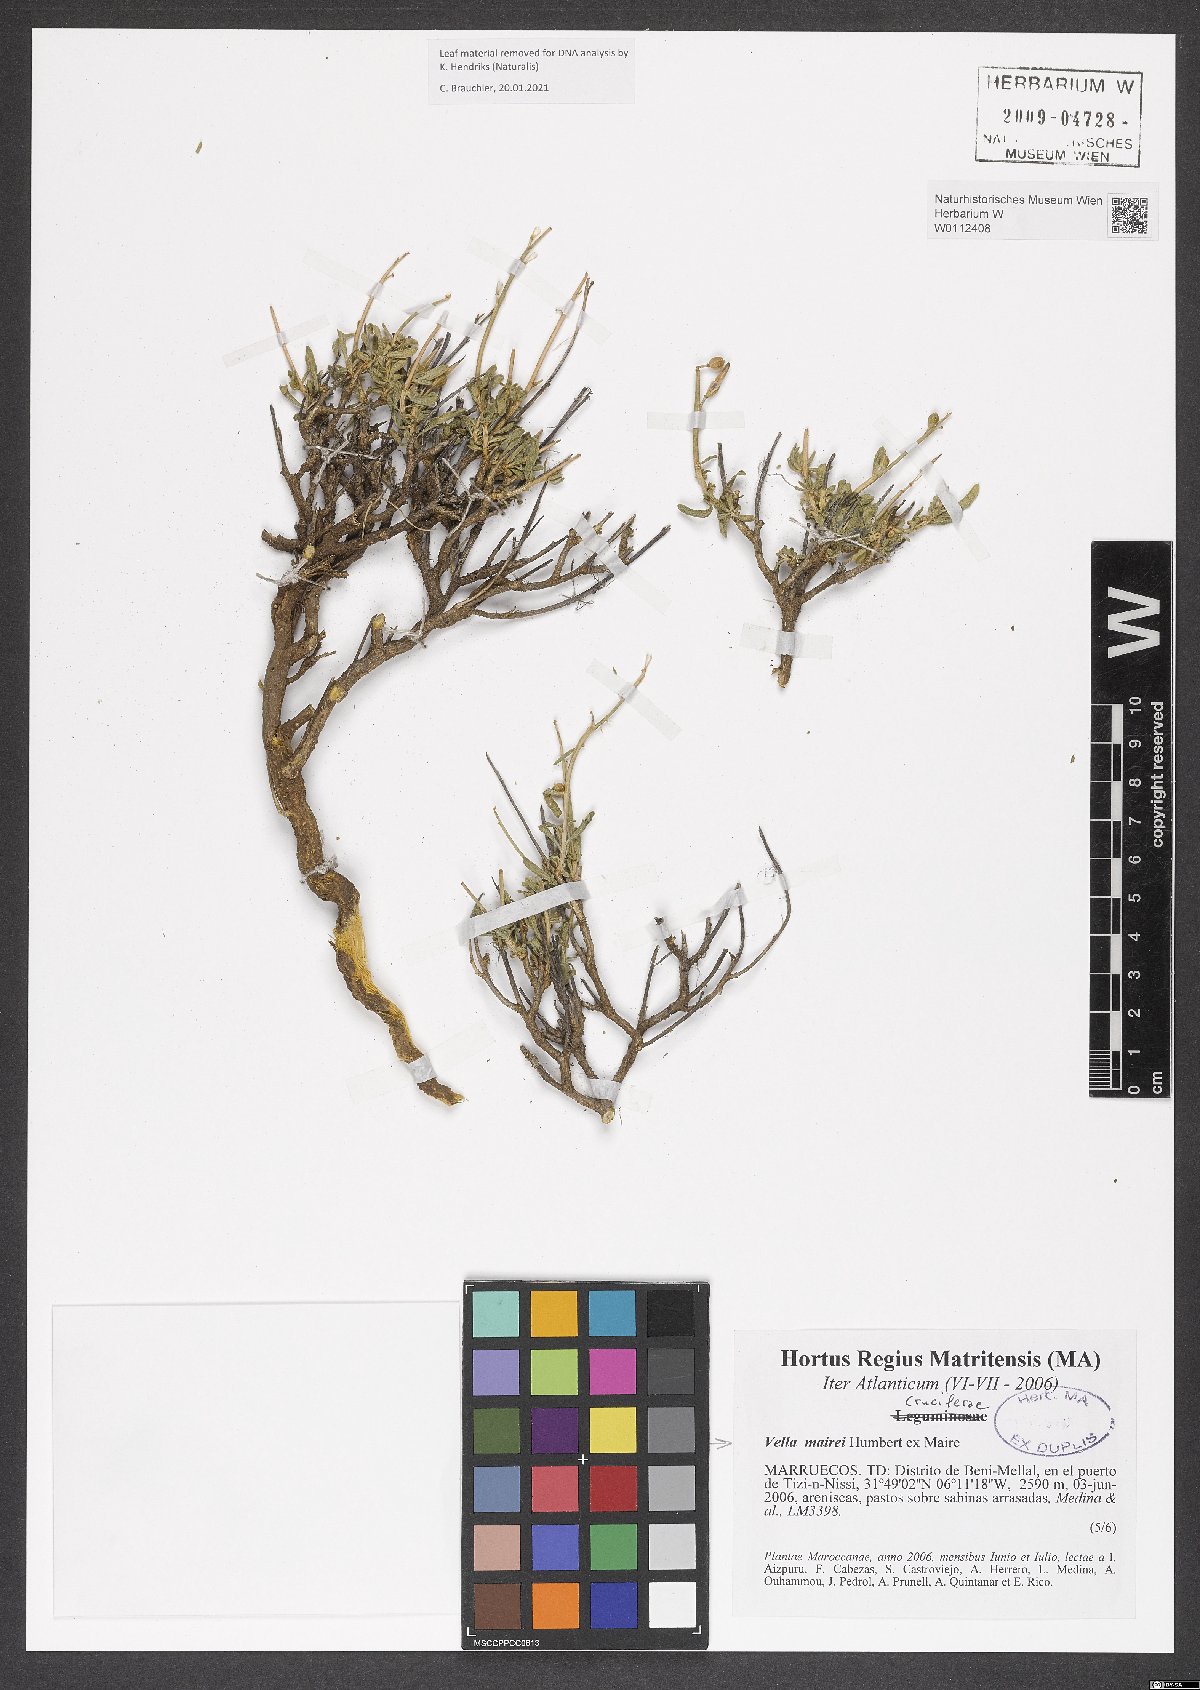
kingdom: Plantae
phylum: Tracheophyta
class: Magnoliopsida
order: Brassicales
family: Brassicaceae
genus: Vella
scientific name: Vella mairei
